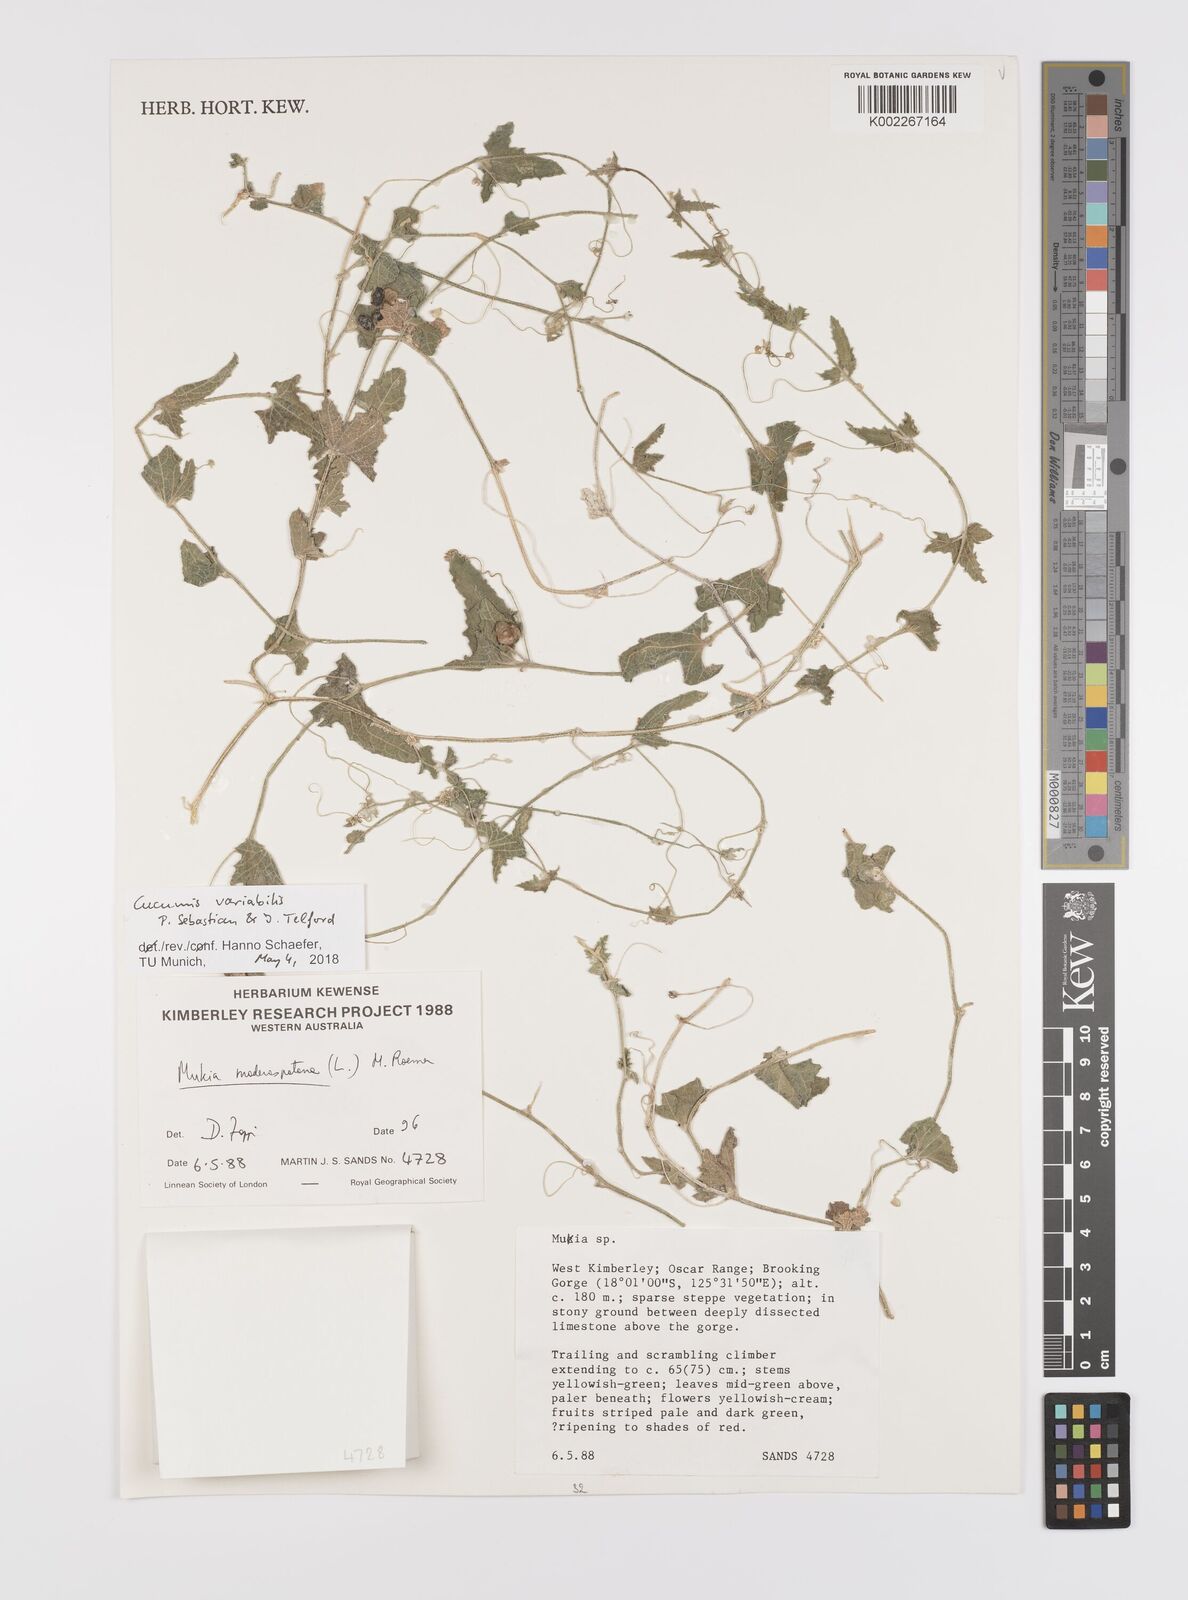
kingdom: Plantae
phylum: Tracheophyta
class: Magnoliopsida
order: Cucurbitales
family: Cucurbitaceae
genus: Cucumis
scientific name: Cucumis maderaspatanus
